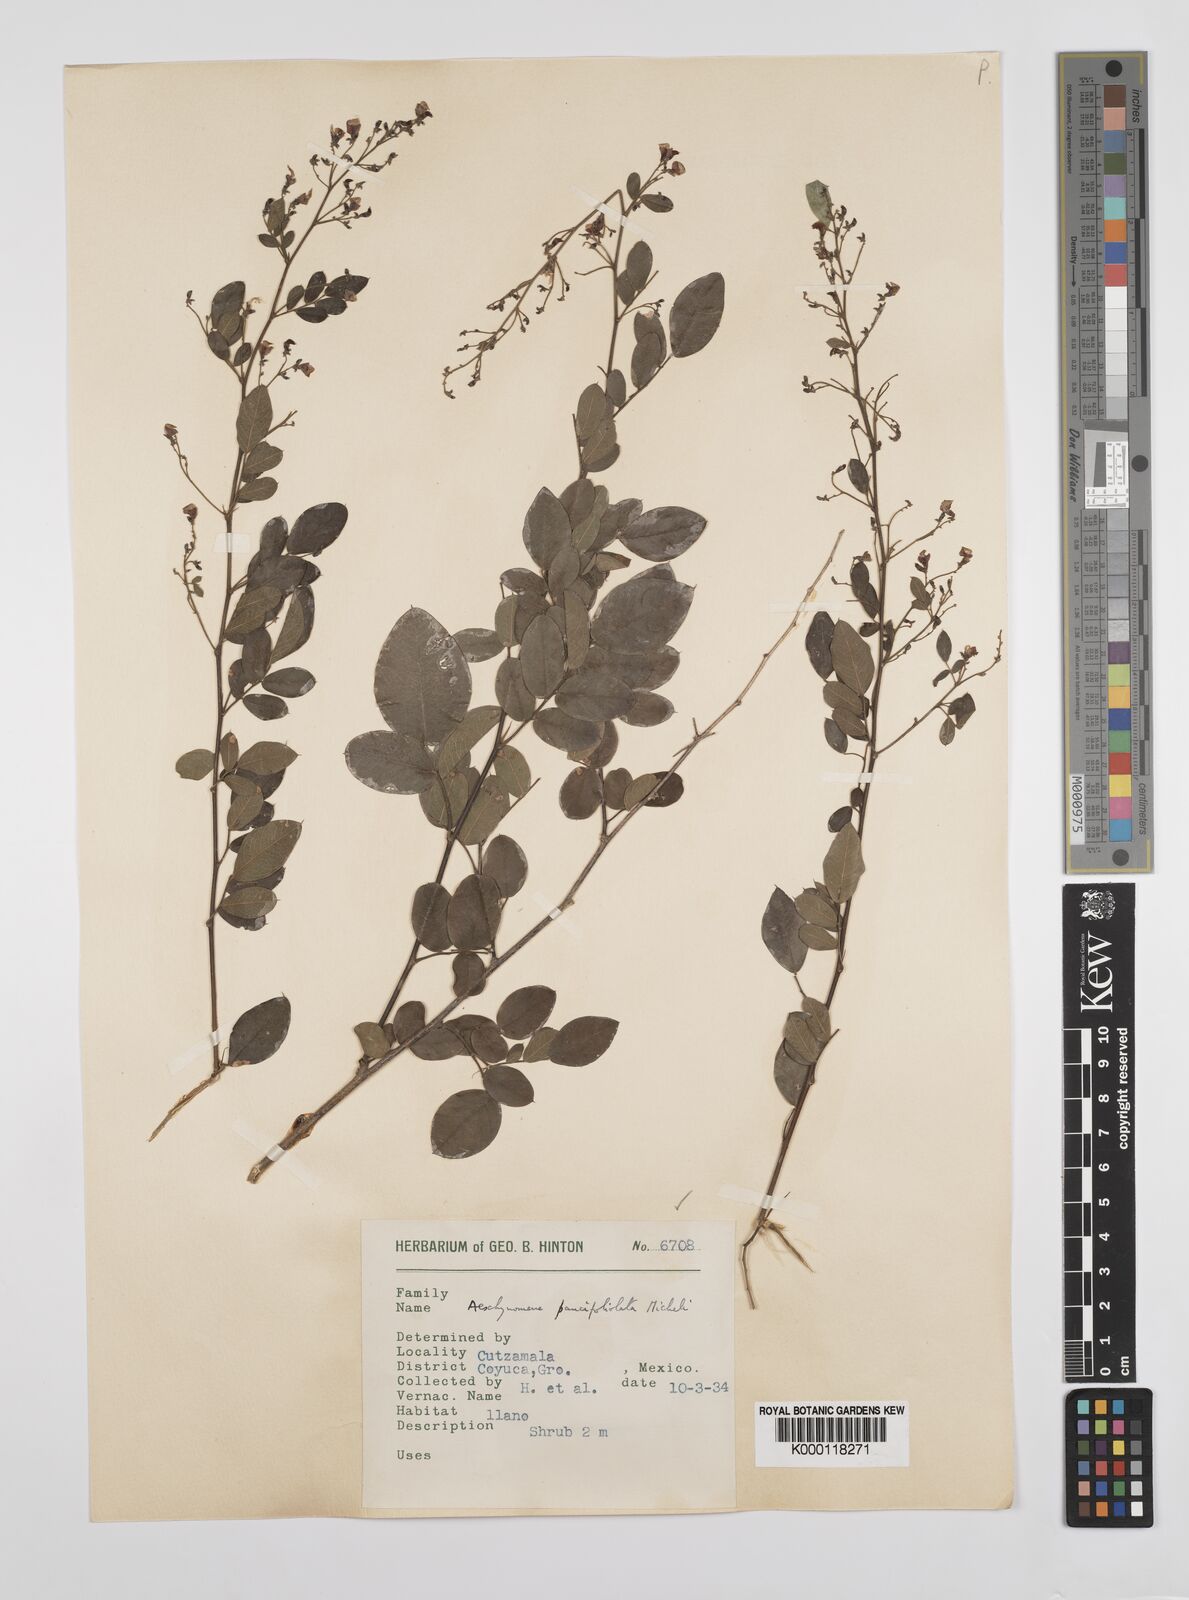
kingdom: Plantae
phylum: Tracheophyta
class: Magnoliopsida
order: Fabales
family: Fabaceae
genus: Ctenodon
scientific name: Ctenodon paucifoliolatus
